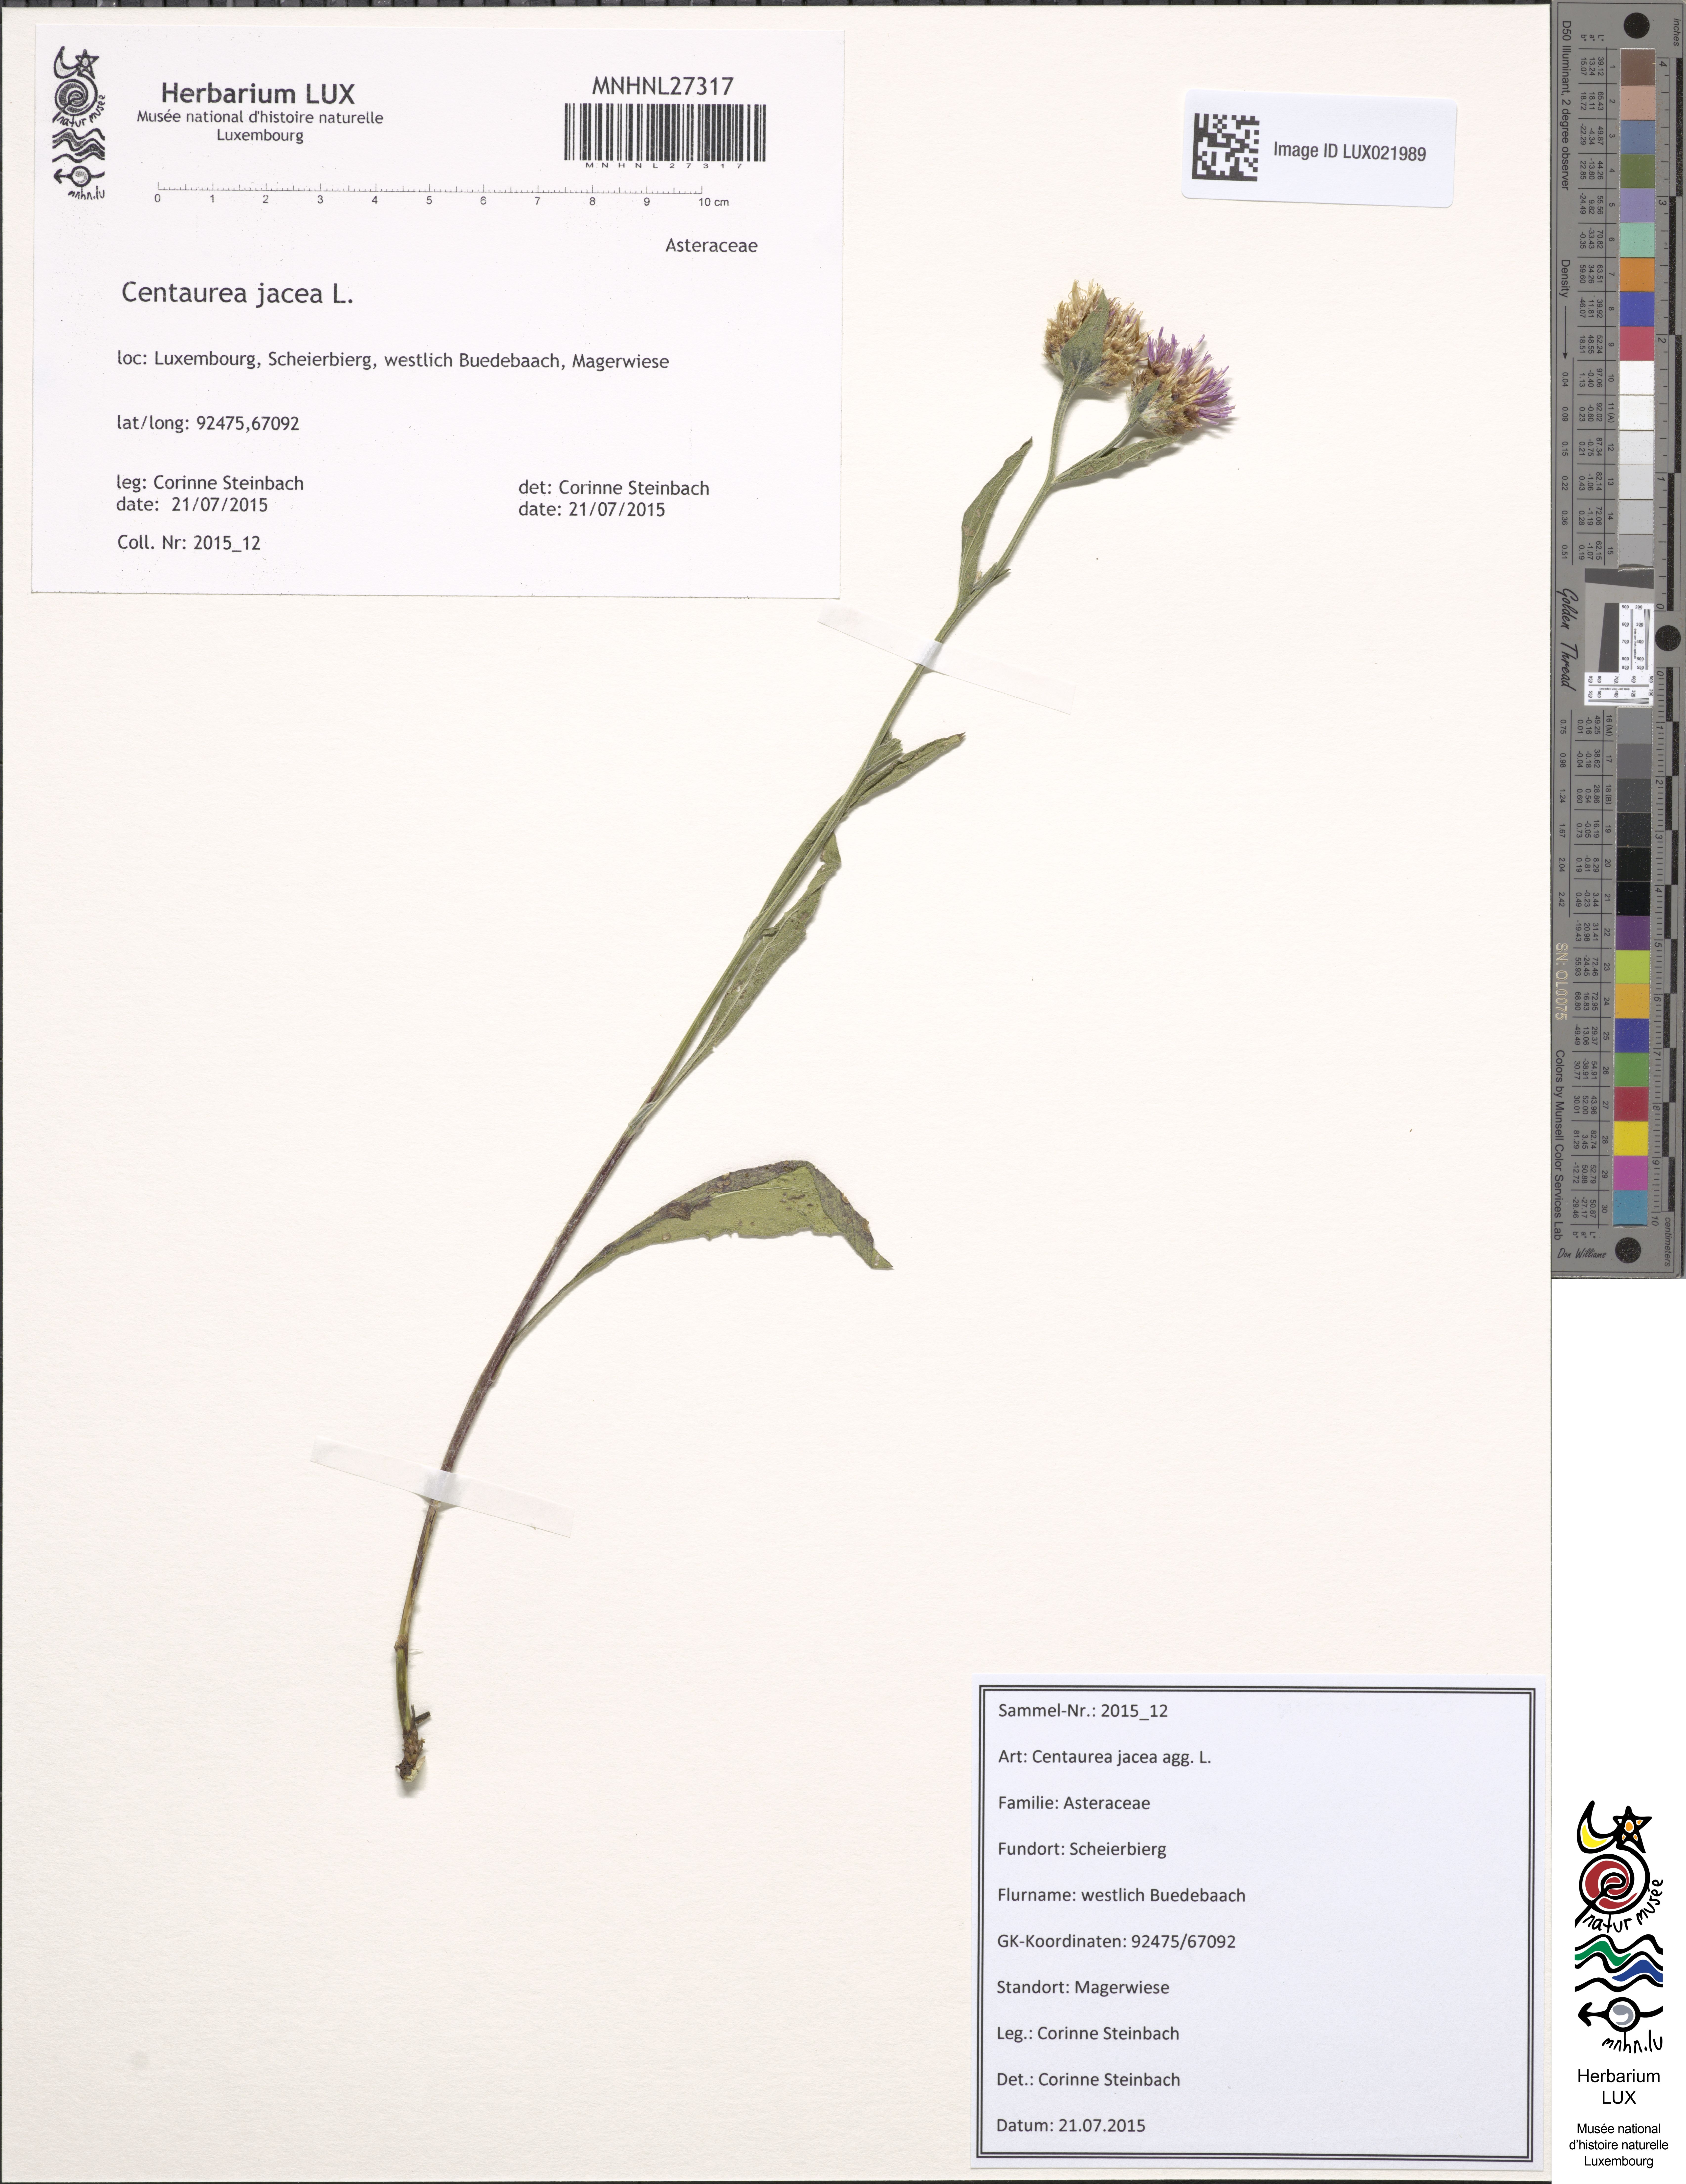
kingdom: Plantae
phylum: Tracheophyta
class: Magnoliopsida
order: Asterales
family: Asteraceae
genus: Centaurea
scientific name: Centaurea jacea
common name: Brown knapweed
